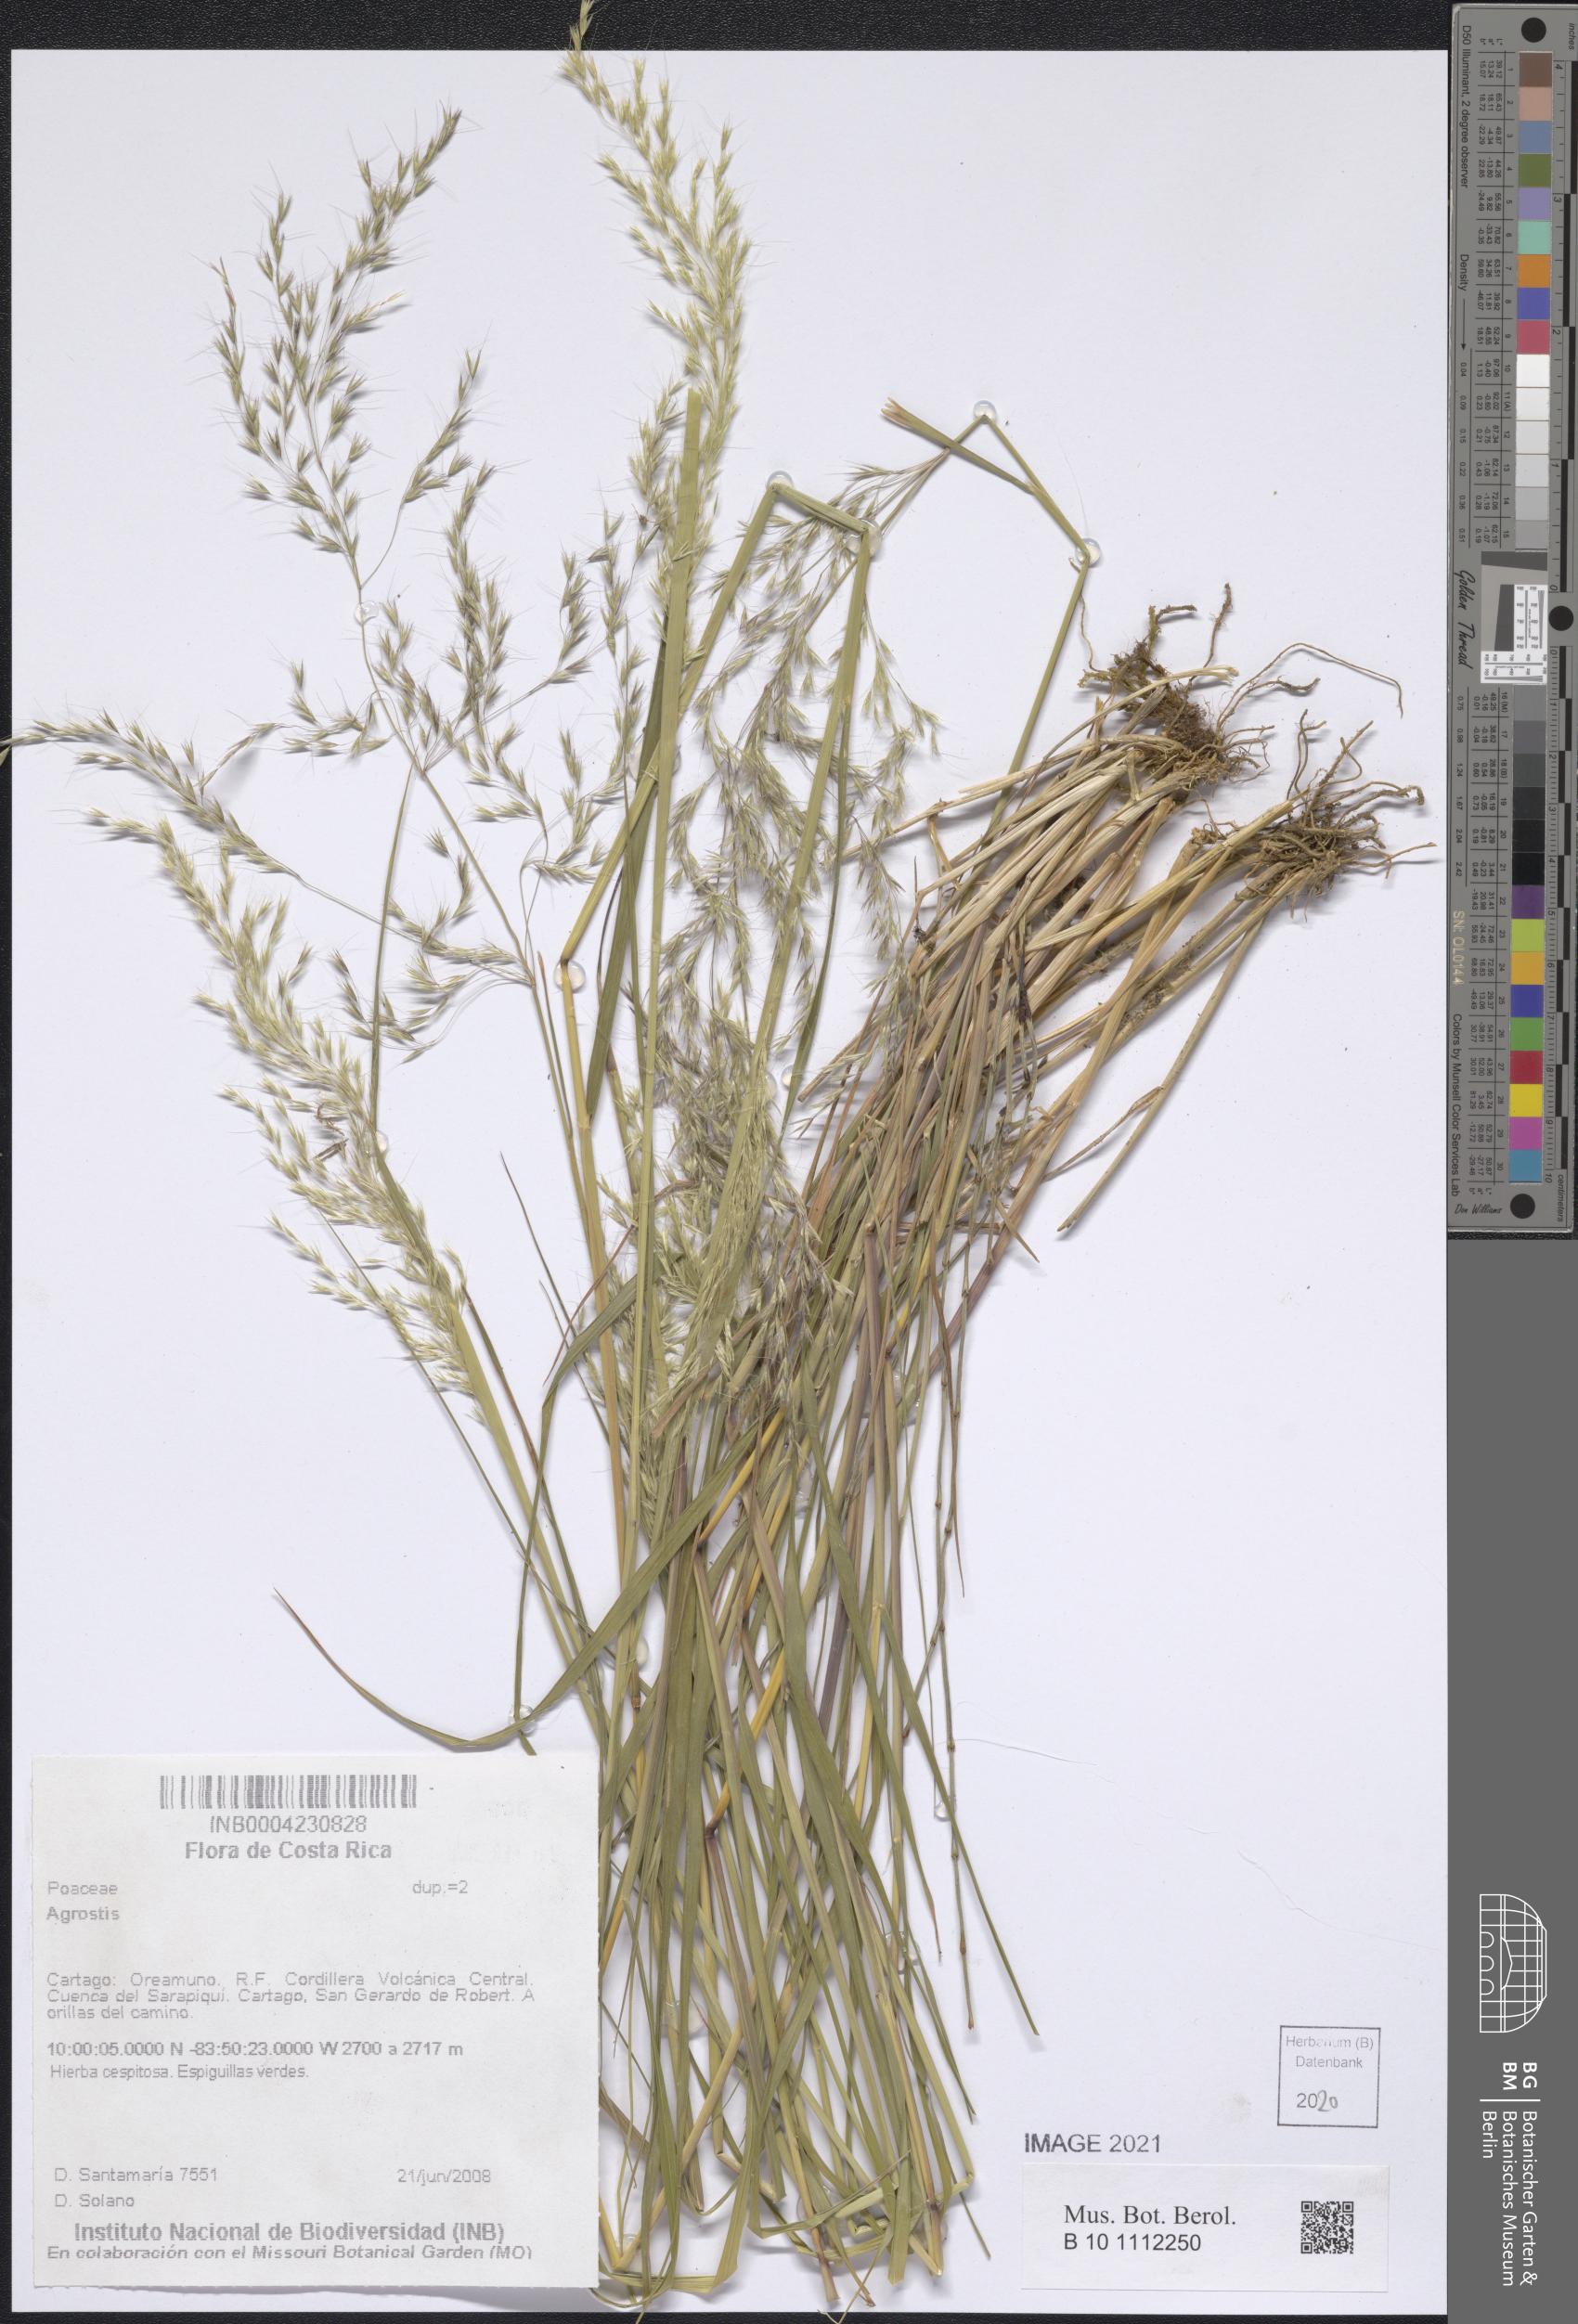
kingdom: Plantae
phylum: Tracheophyta
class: Liliopsida
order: Poales
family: Poaceae
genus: Agrostis
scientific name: Agrostis
